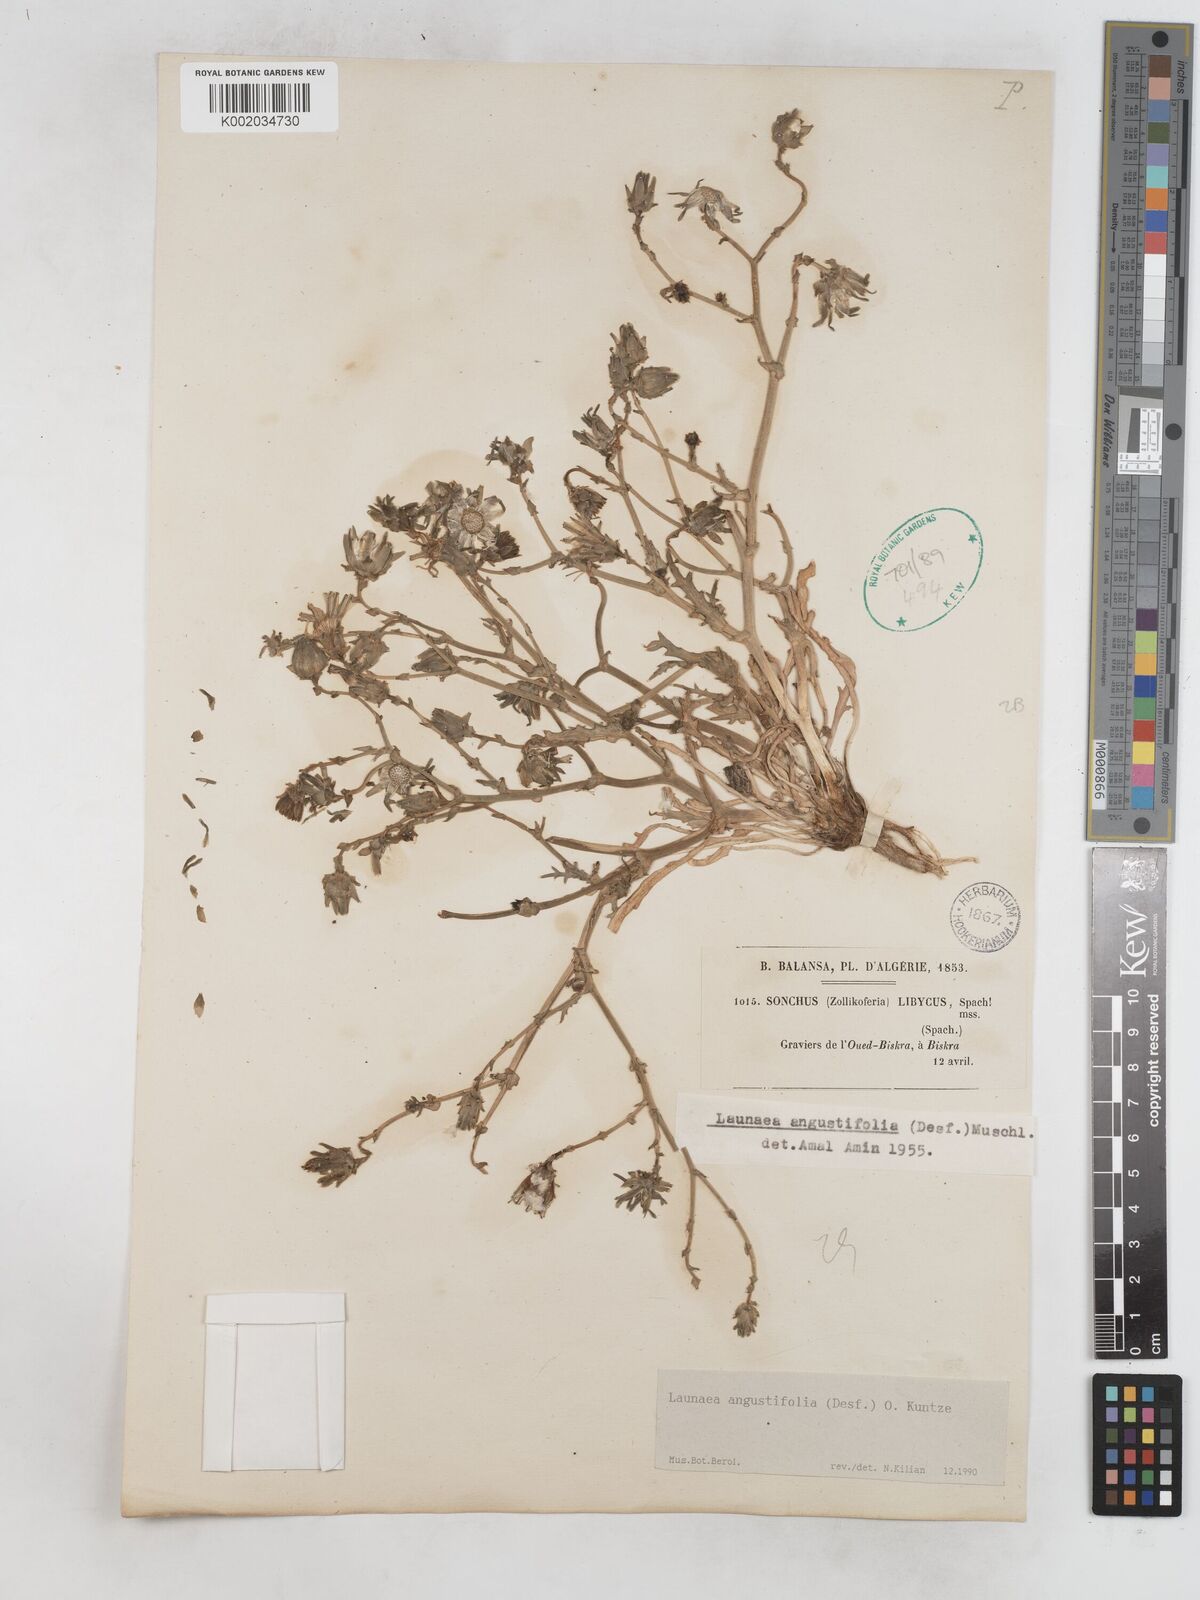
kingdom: Plantae
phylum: Tracheophyta
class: Magnoliopsida
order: Asterales
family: Asteraceae
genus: Launaea
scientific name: Launaea angustifolia
